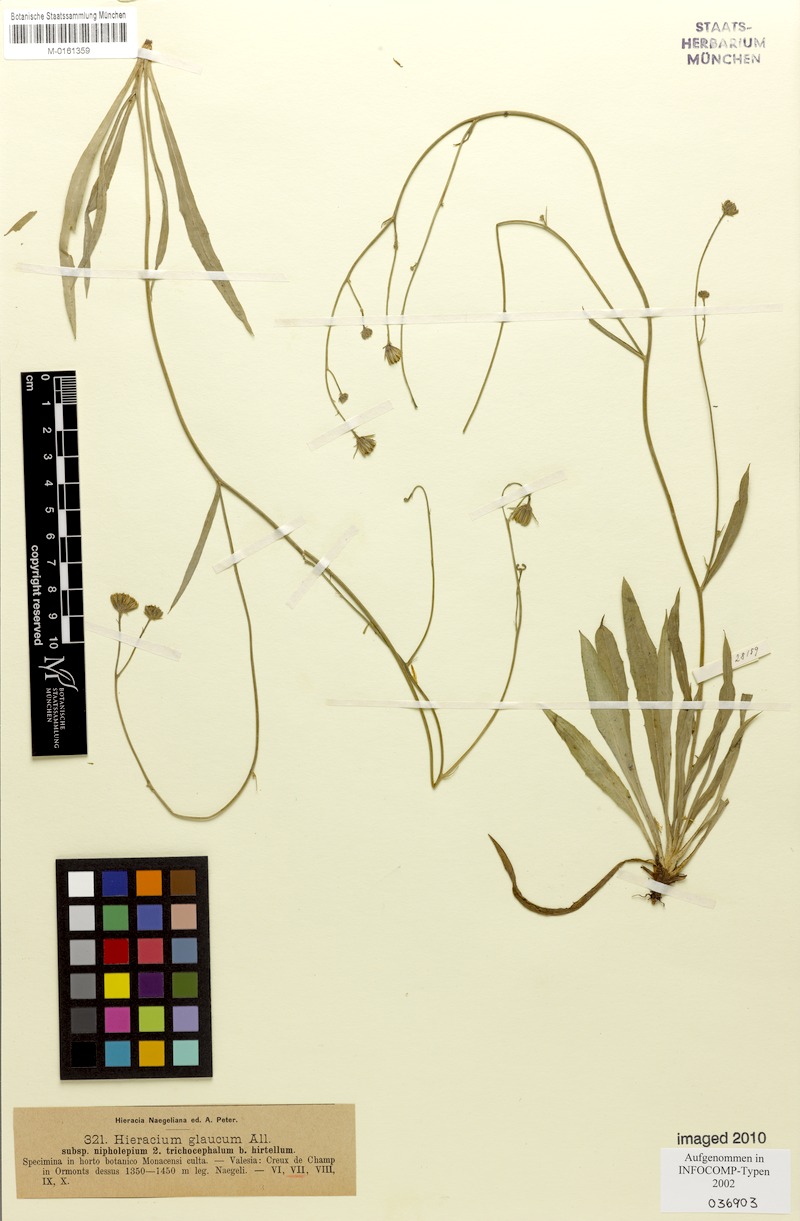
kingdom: Plantae
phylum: Tracheophyta
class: Magnoliopsida
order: Asterales
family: Asteraceae
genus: Hieracium
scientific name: Hieracium glaucum
